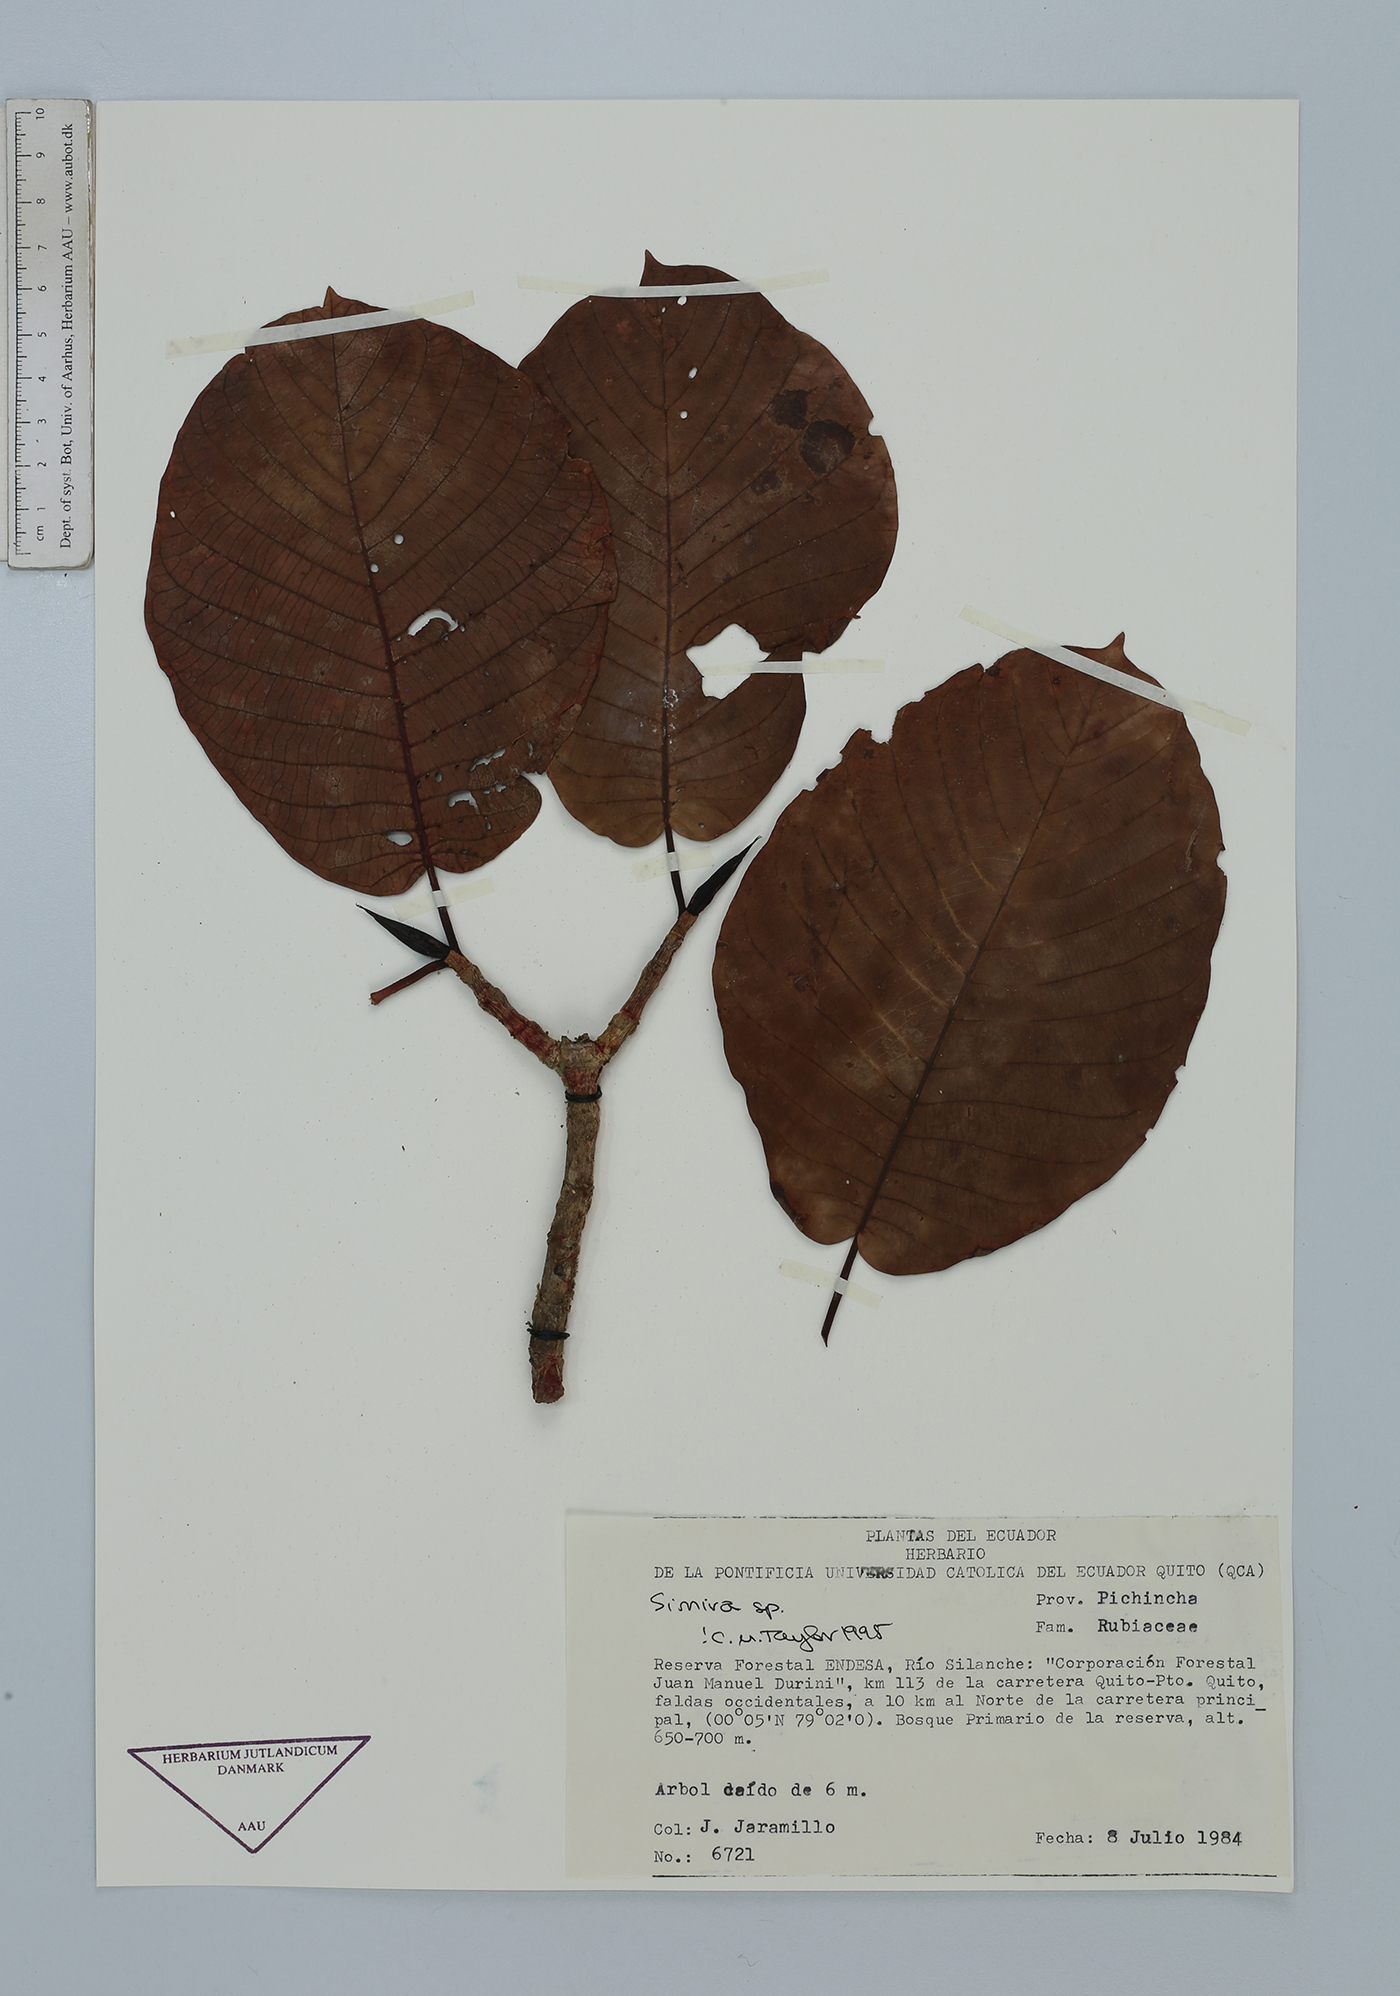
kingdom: Plantae
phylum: Tracheophyta
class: Magnoliopsida
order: Gentianales
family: Rubiaceae
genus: Simira
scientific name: Simira
